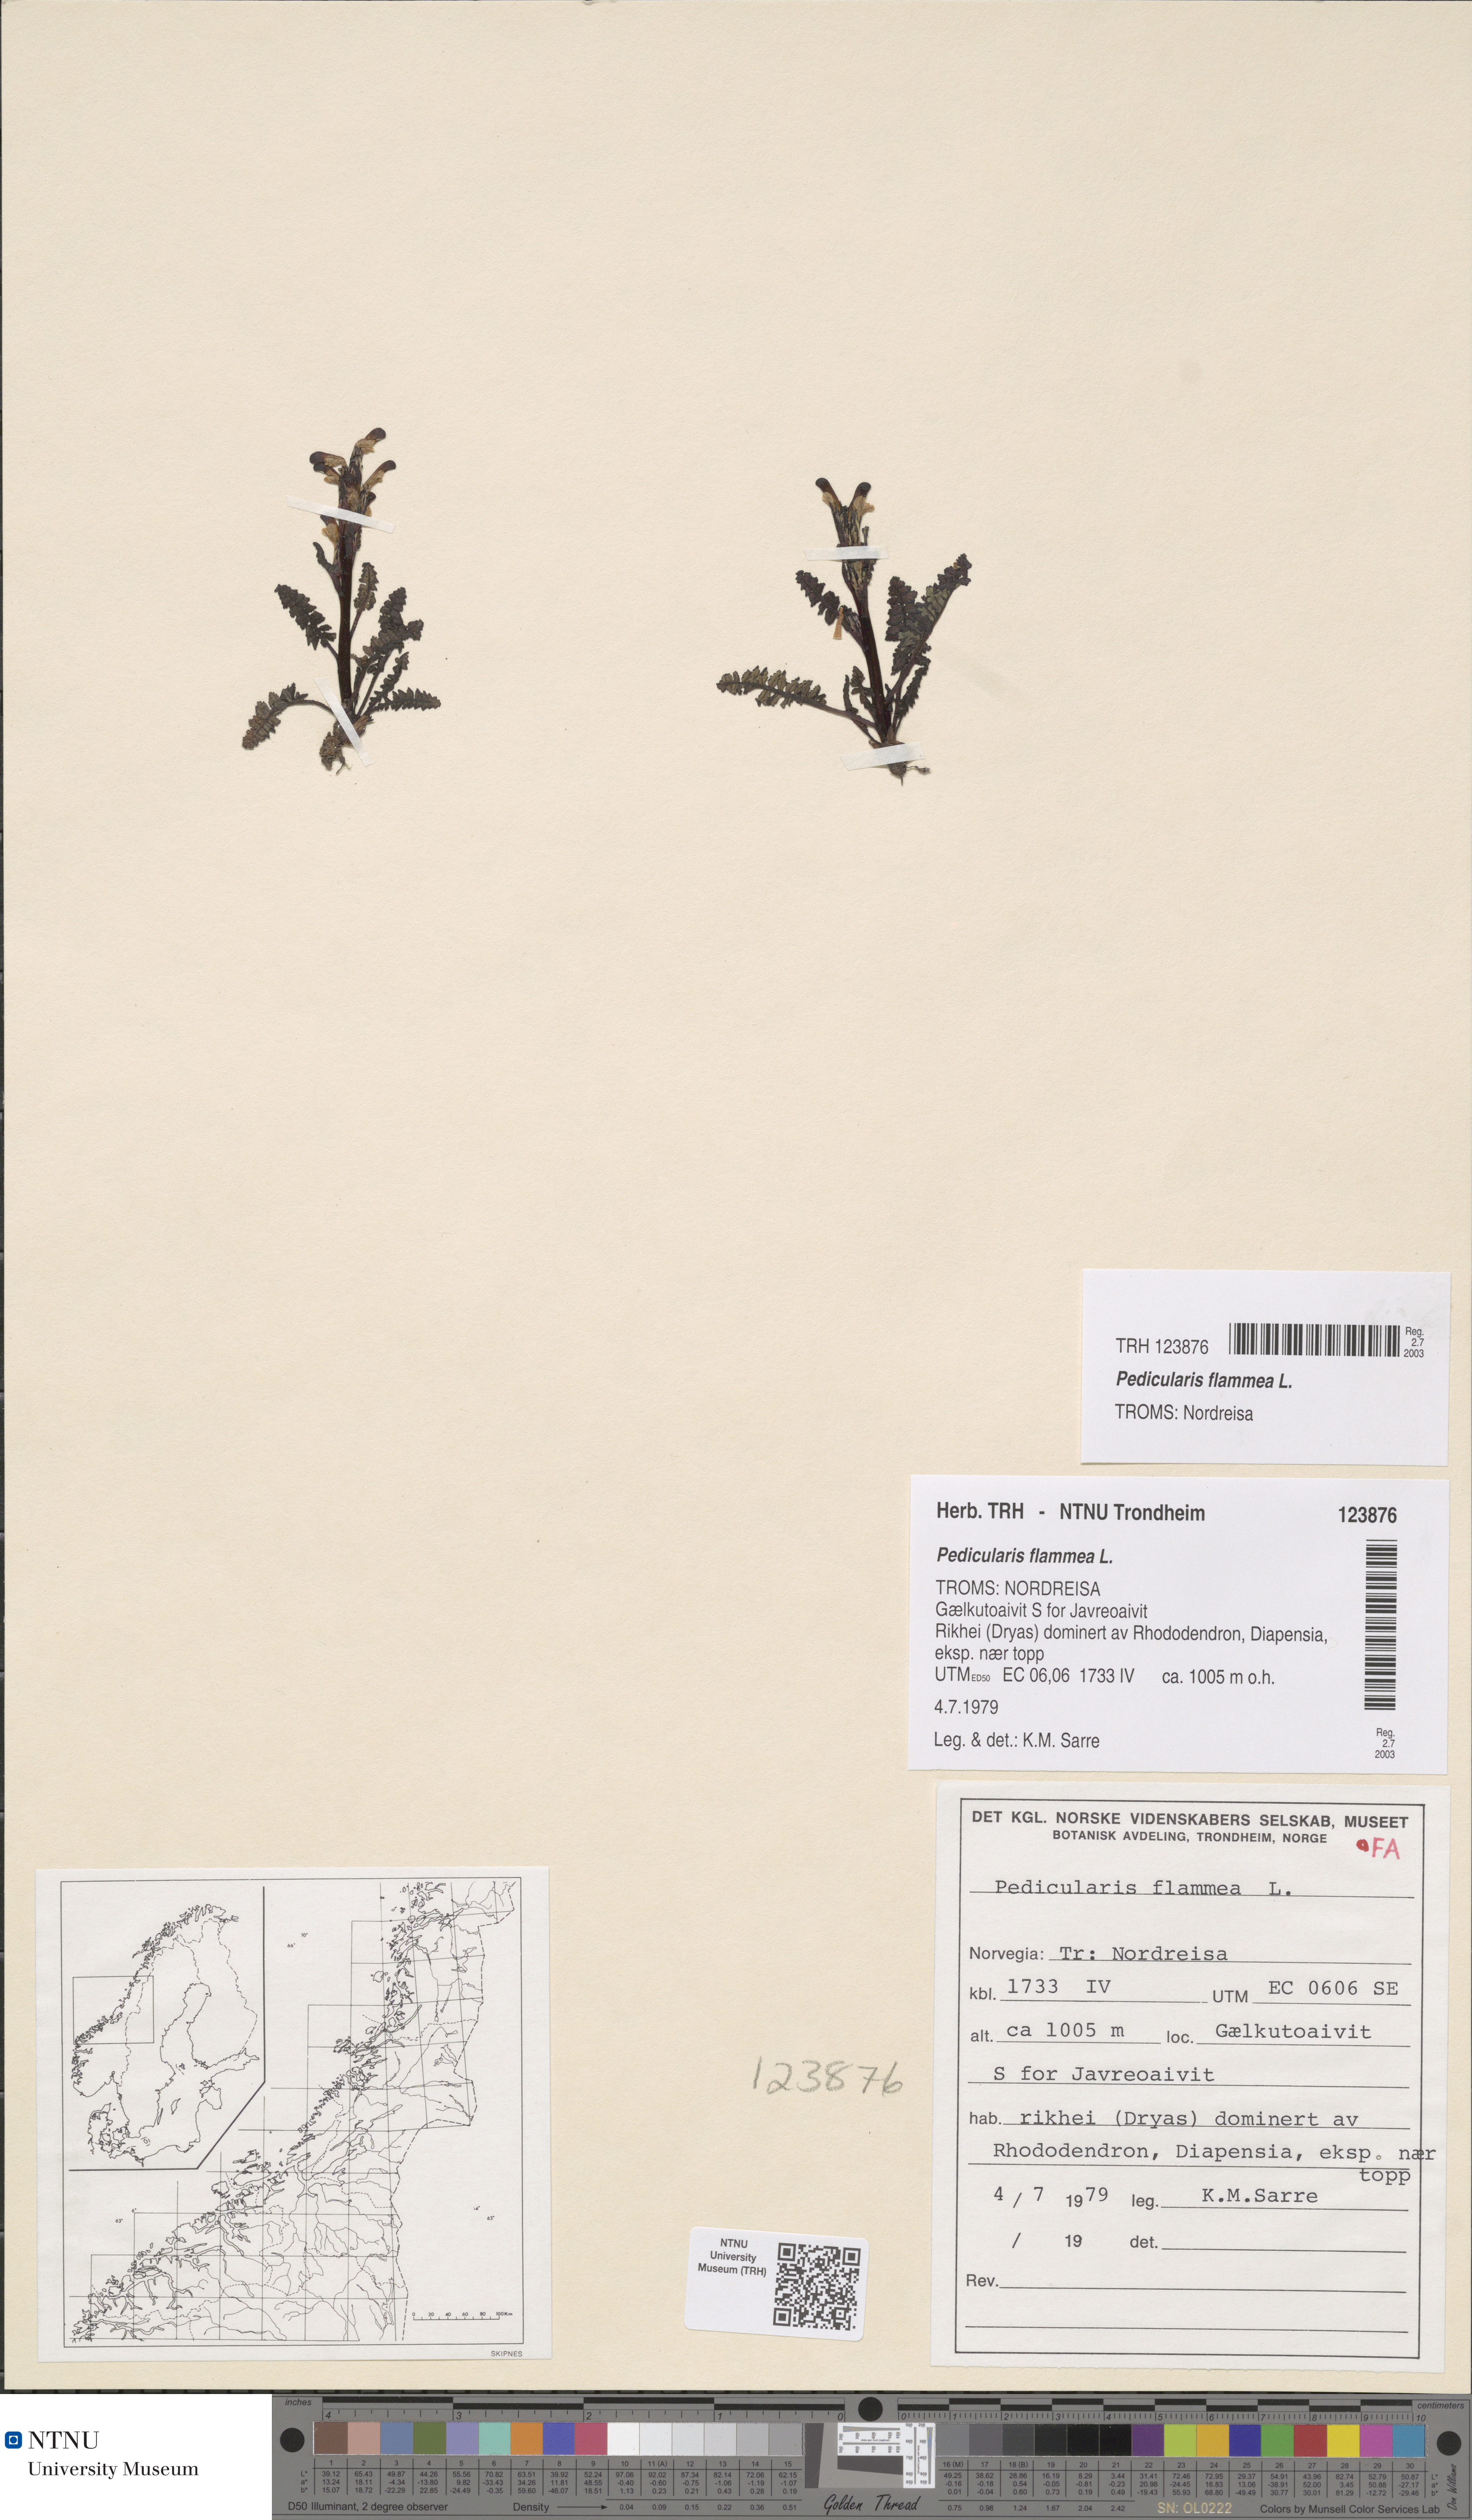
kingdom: Plantae
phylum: Tracheophyta
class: Magnoliopsida
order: Lamiales
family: Orobanchaceae
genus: Pedicularis
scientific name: Pedicularis flammea
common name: Flame-coloured lousewort
